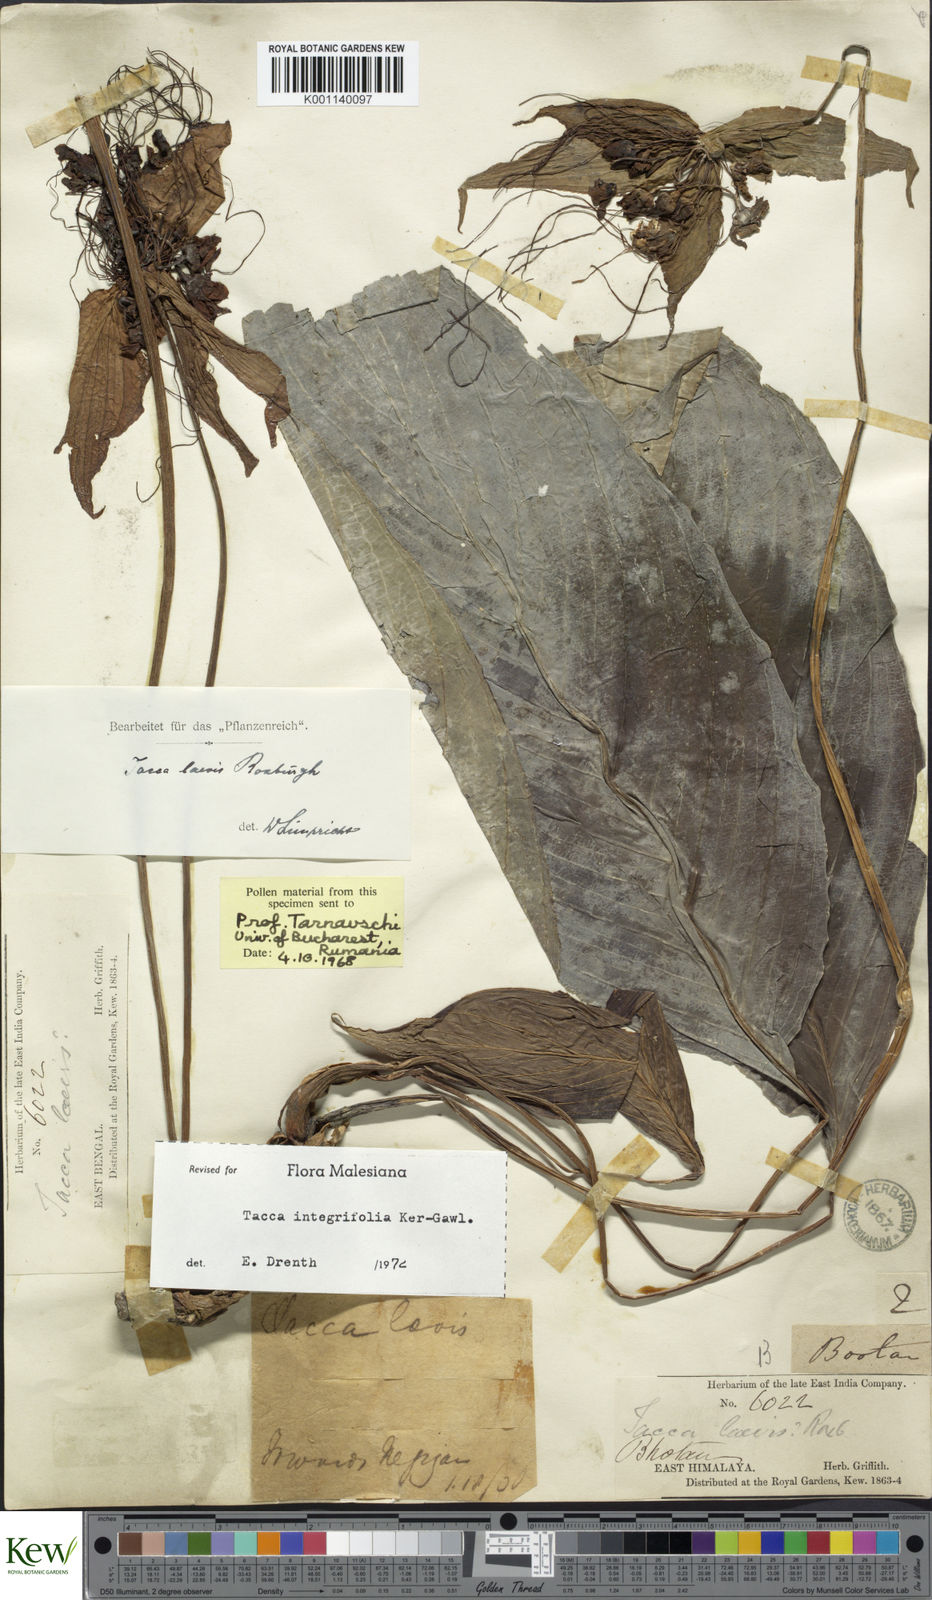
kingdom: Plantae
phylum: Tracheophyta
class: Liliopsida
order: Dioscoreales
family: Dioscoreaceae
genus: Tacca
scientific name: Tacca
